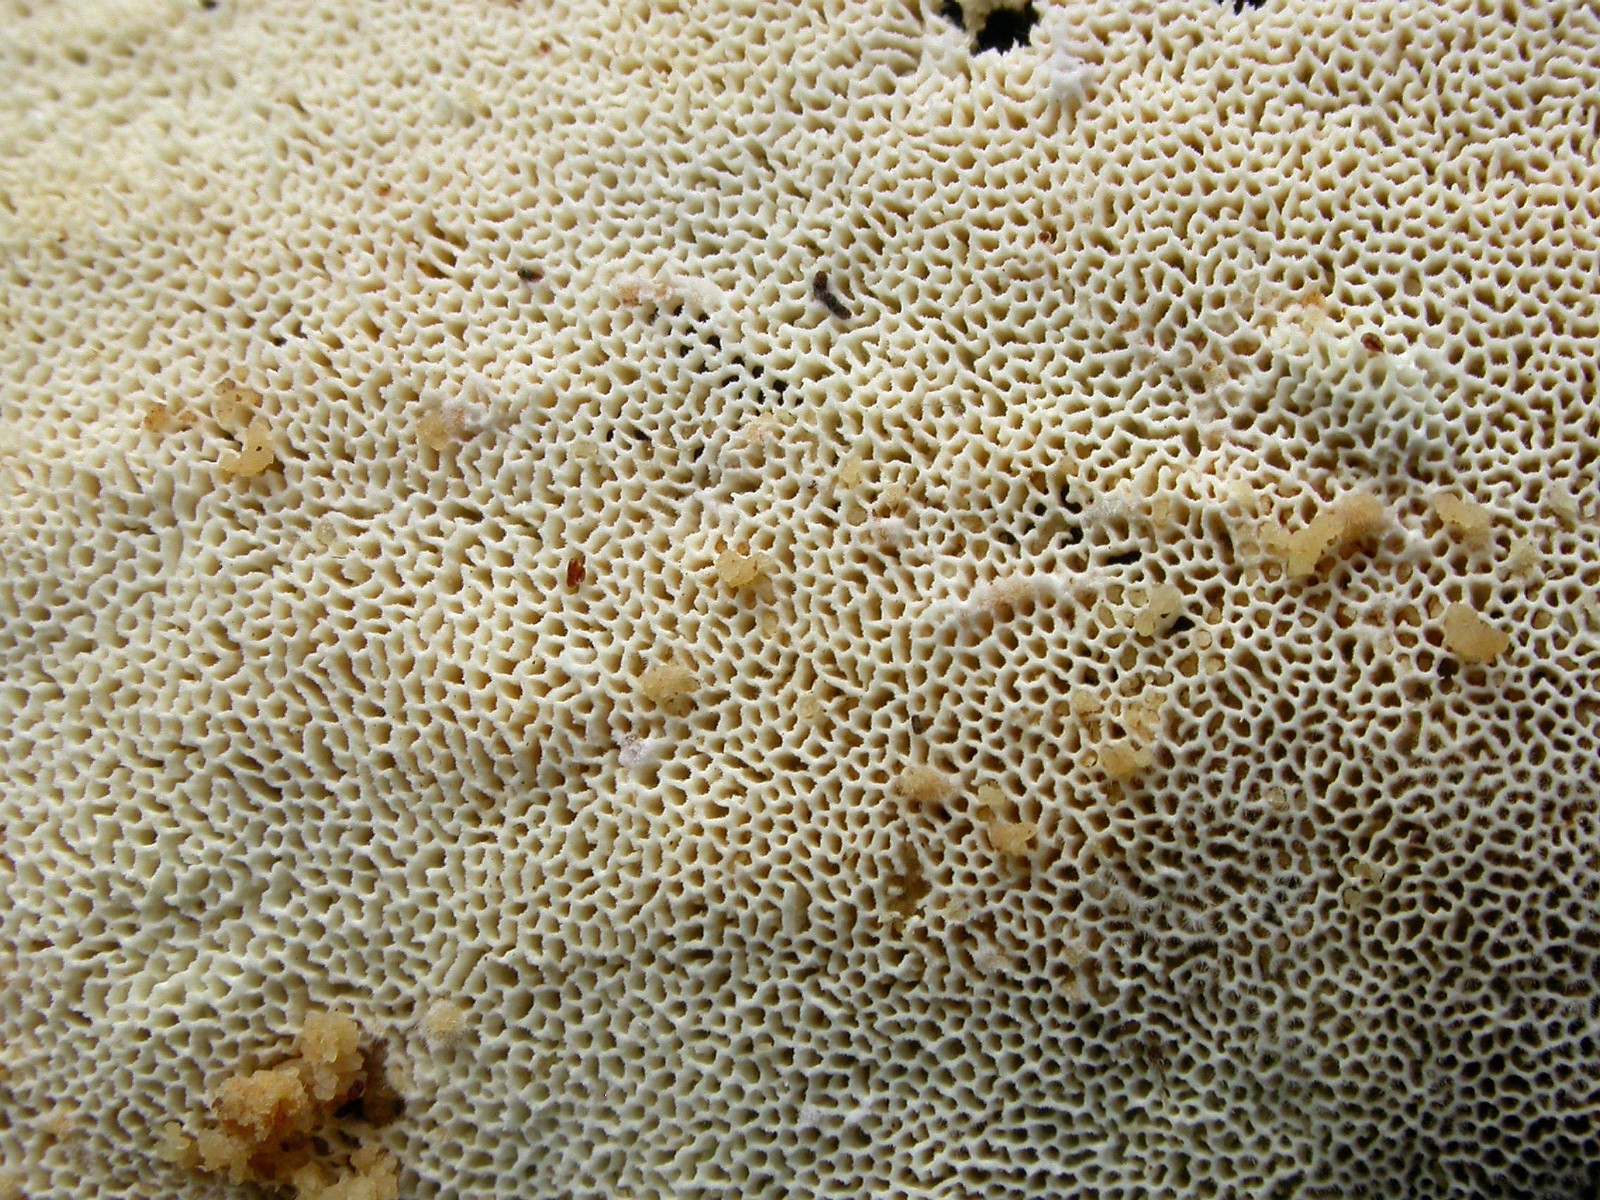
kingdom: Fungi
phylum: Basidiomycota
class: Agaricomycetes
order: Hymenochaetales
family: Schizoporaceae
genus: Xylodon
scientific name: Xylodon subtropicus
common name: labyrint-tandsvamp
